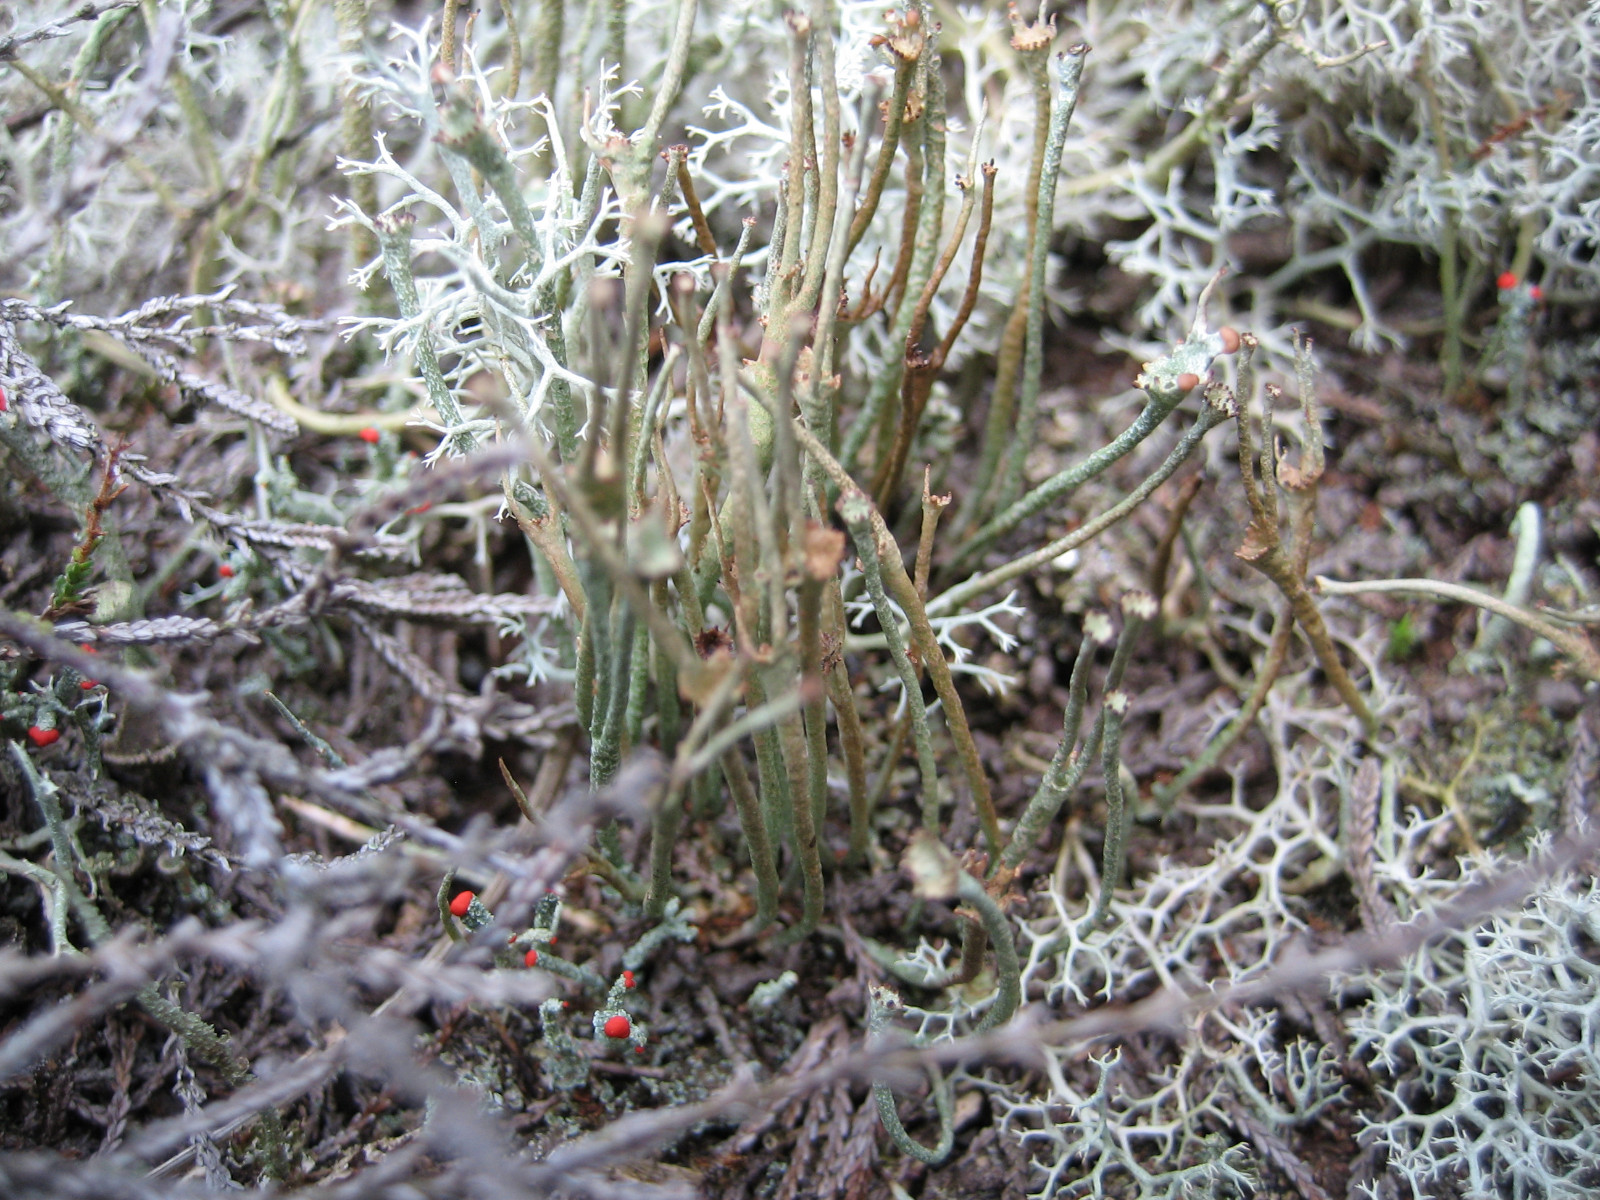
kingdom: Fungi
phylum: Ascomycota
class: Lecanoromycetes
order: Lecanorales
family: Cladoniaceae
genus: Cladonia
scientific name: Cladonia gracilis
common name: slank bægerlav
